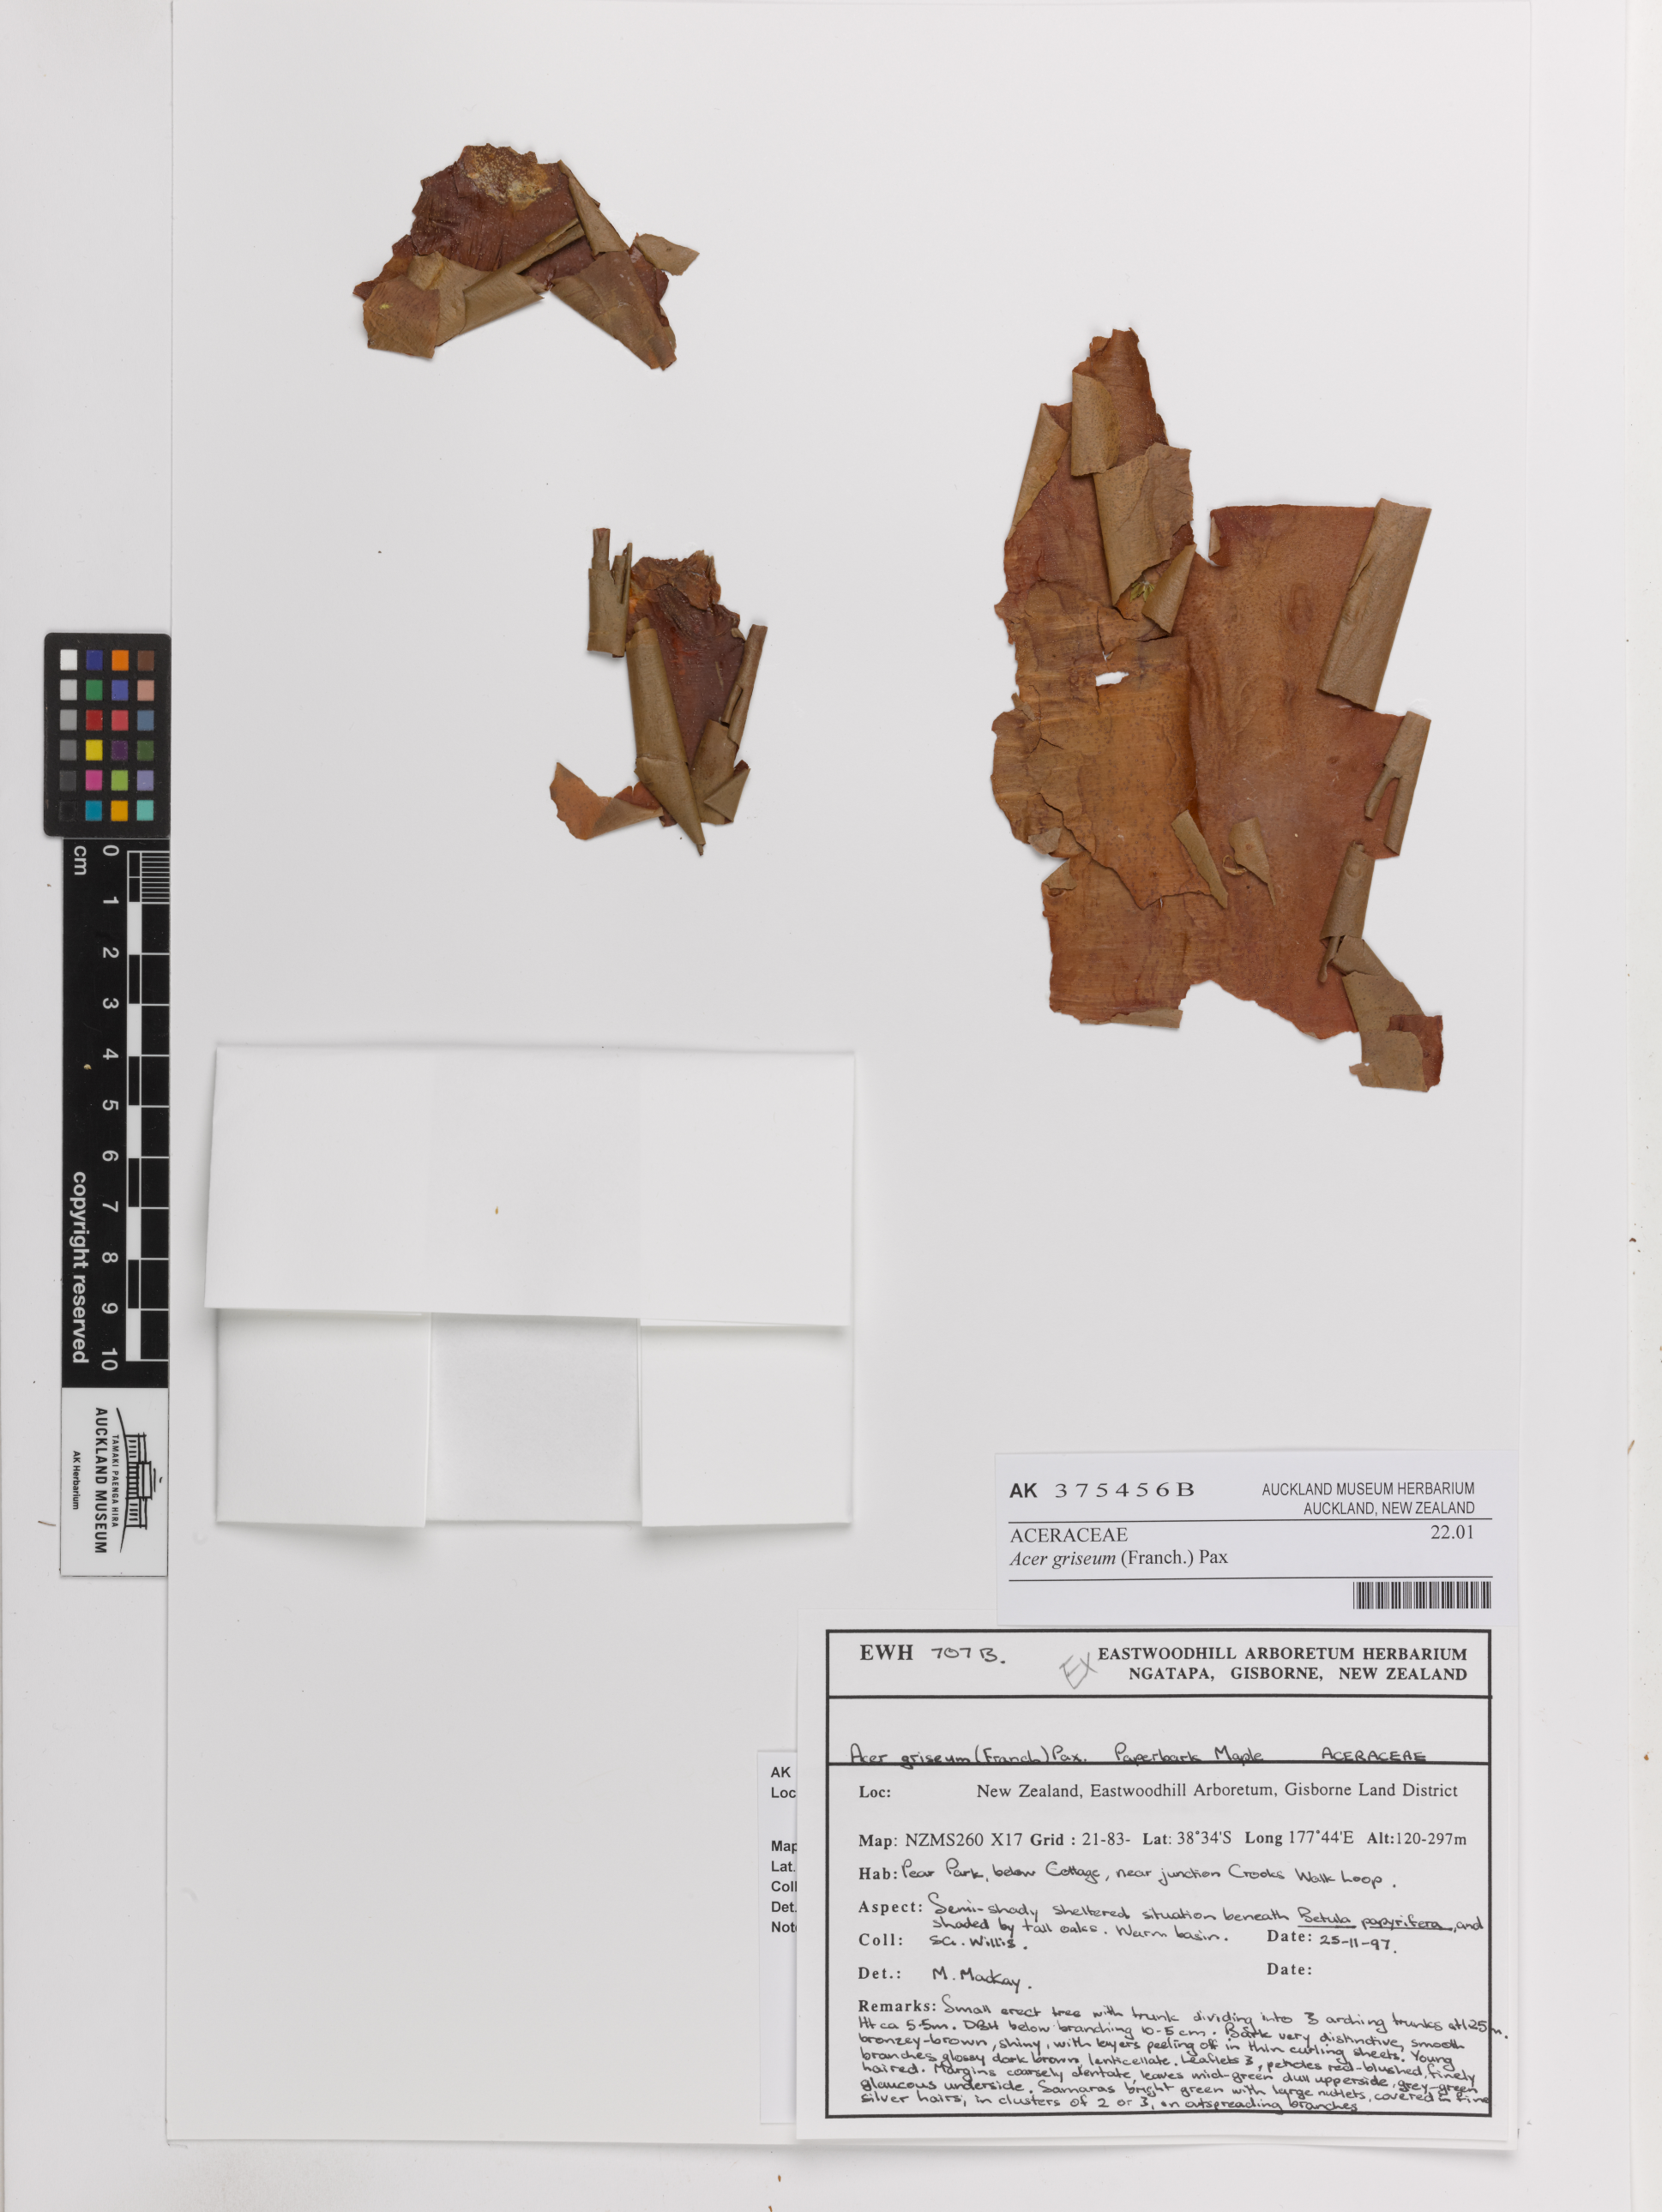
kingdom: Plantae
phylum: Tracheophyta
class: Magnoliopsida
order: Sapindales
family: Sapindaceae
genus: Acer
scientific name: Acer griseum
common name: Paperbark maple
